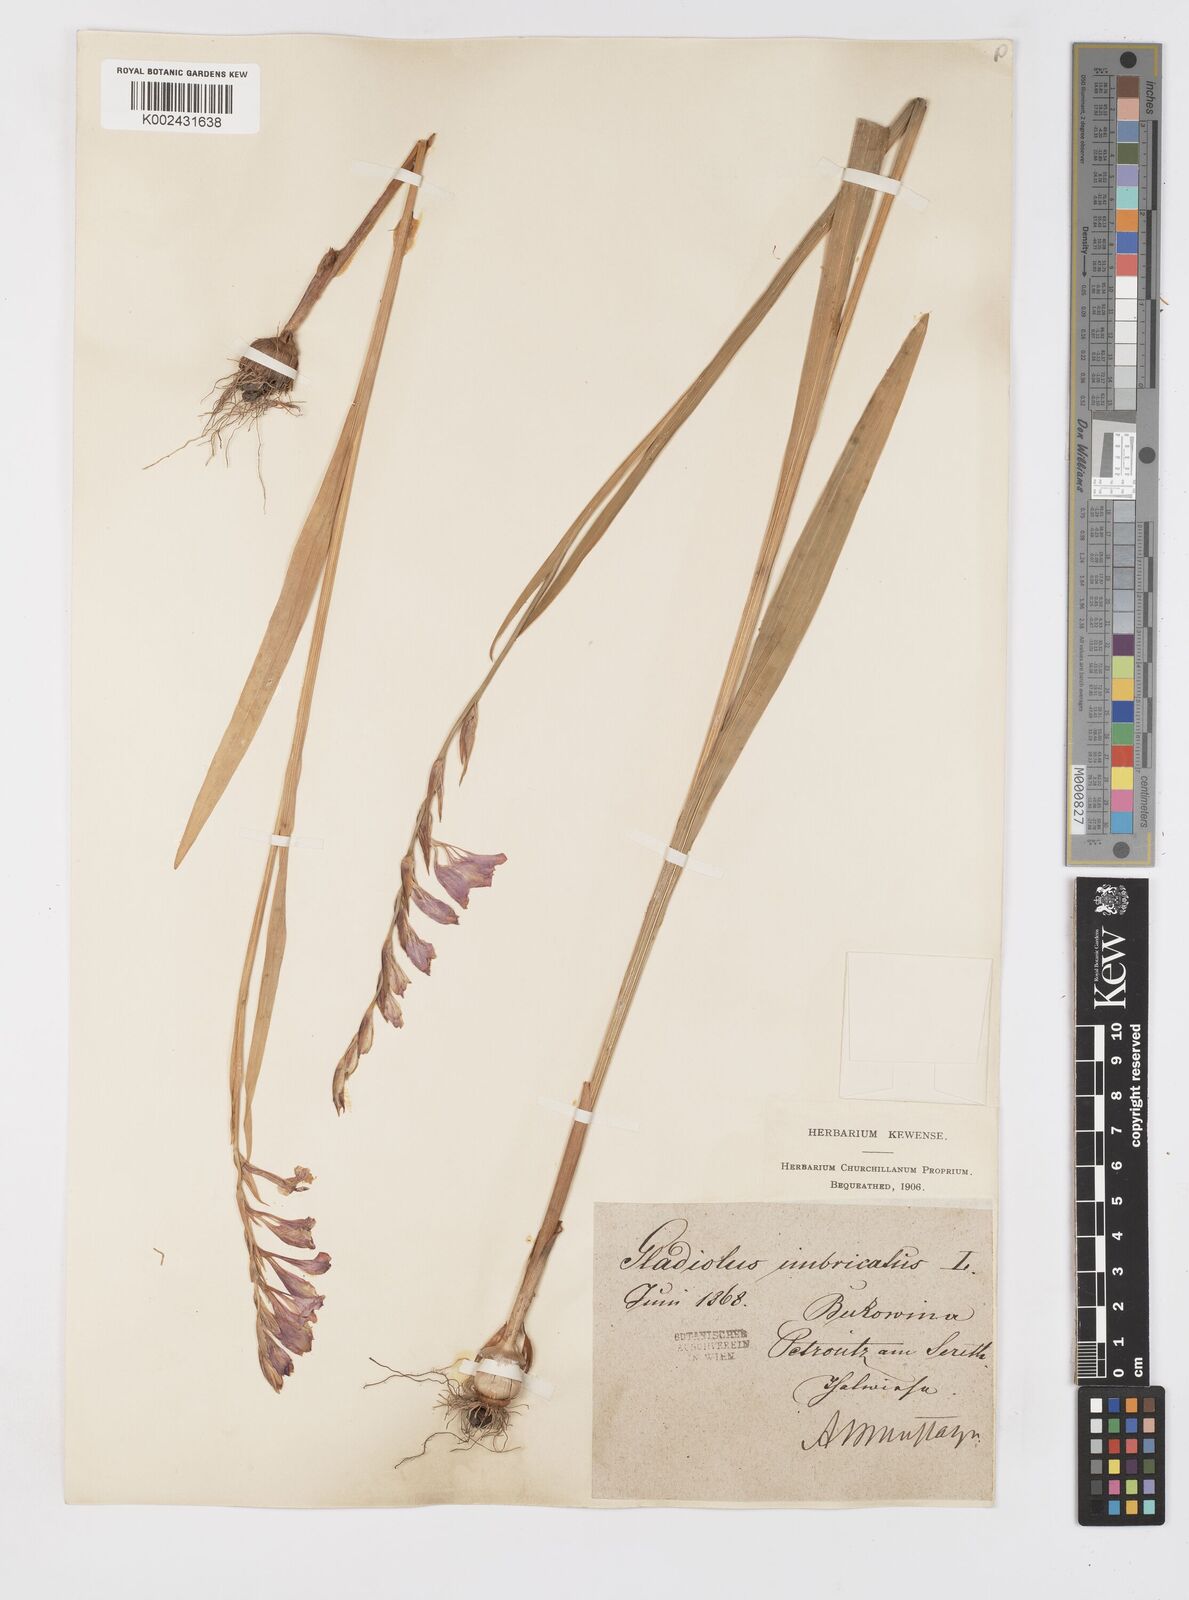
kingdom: Plantae
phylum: Tracheophyta
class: Liliopsida
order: Asparagales
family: Iridaceae
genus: Gladiolus
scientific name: Gladiolus imbricatus
